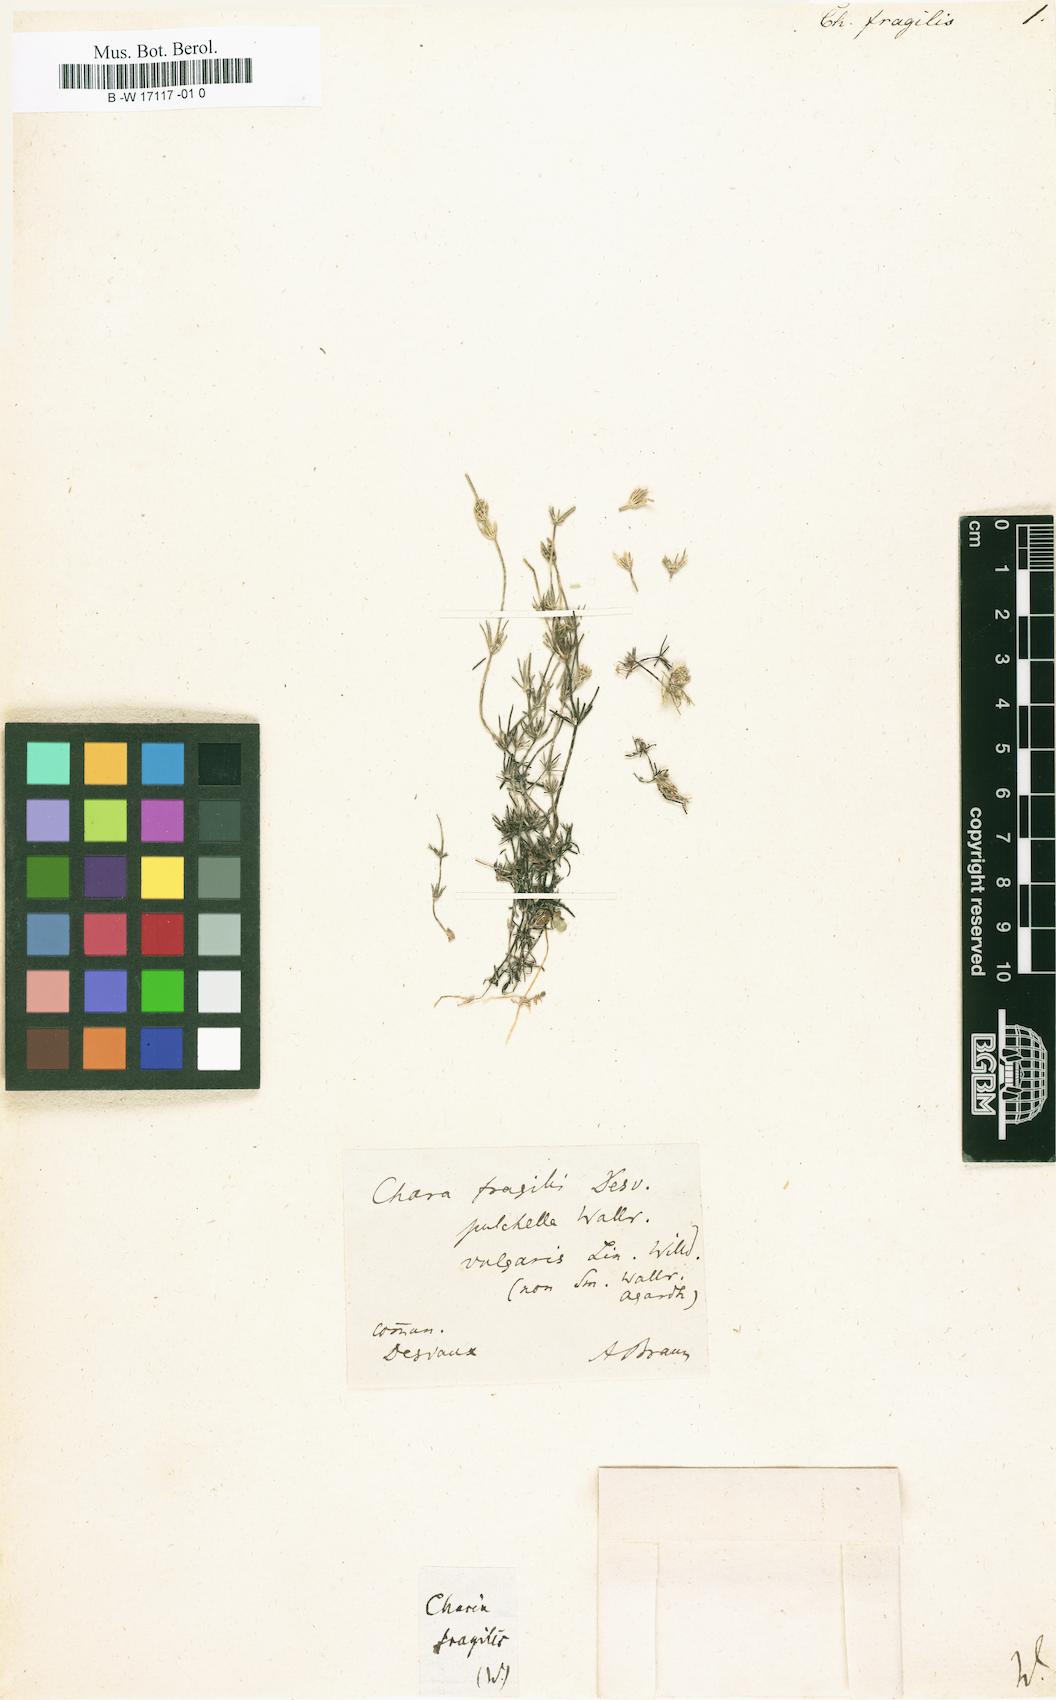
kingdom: Plantae
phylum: Charophyta
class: Charophyceae
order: Charales
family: Characeae
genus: Chara
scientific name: Chara globularis
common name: Fragile stonewort
